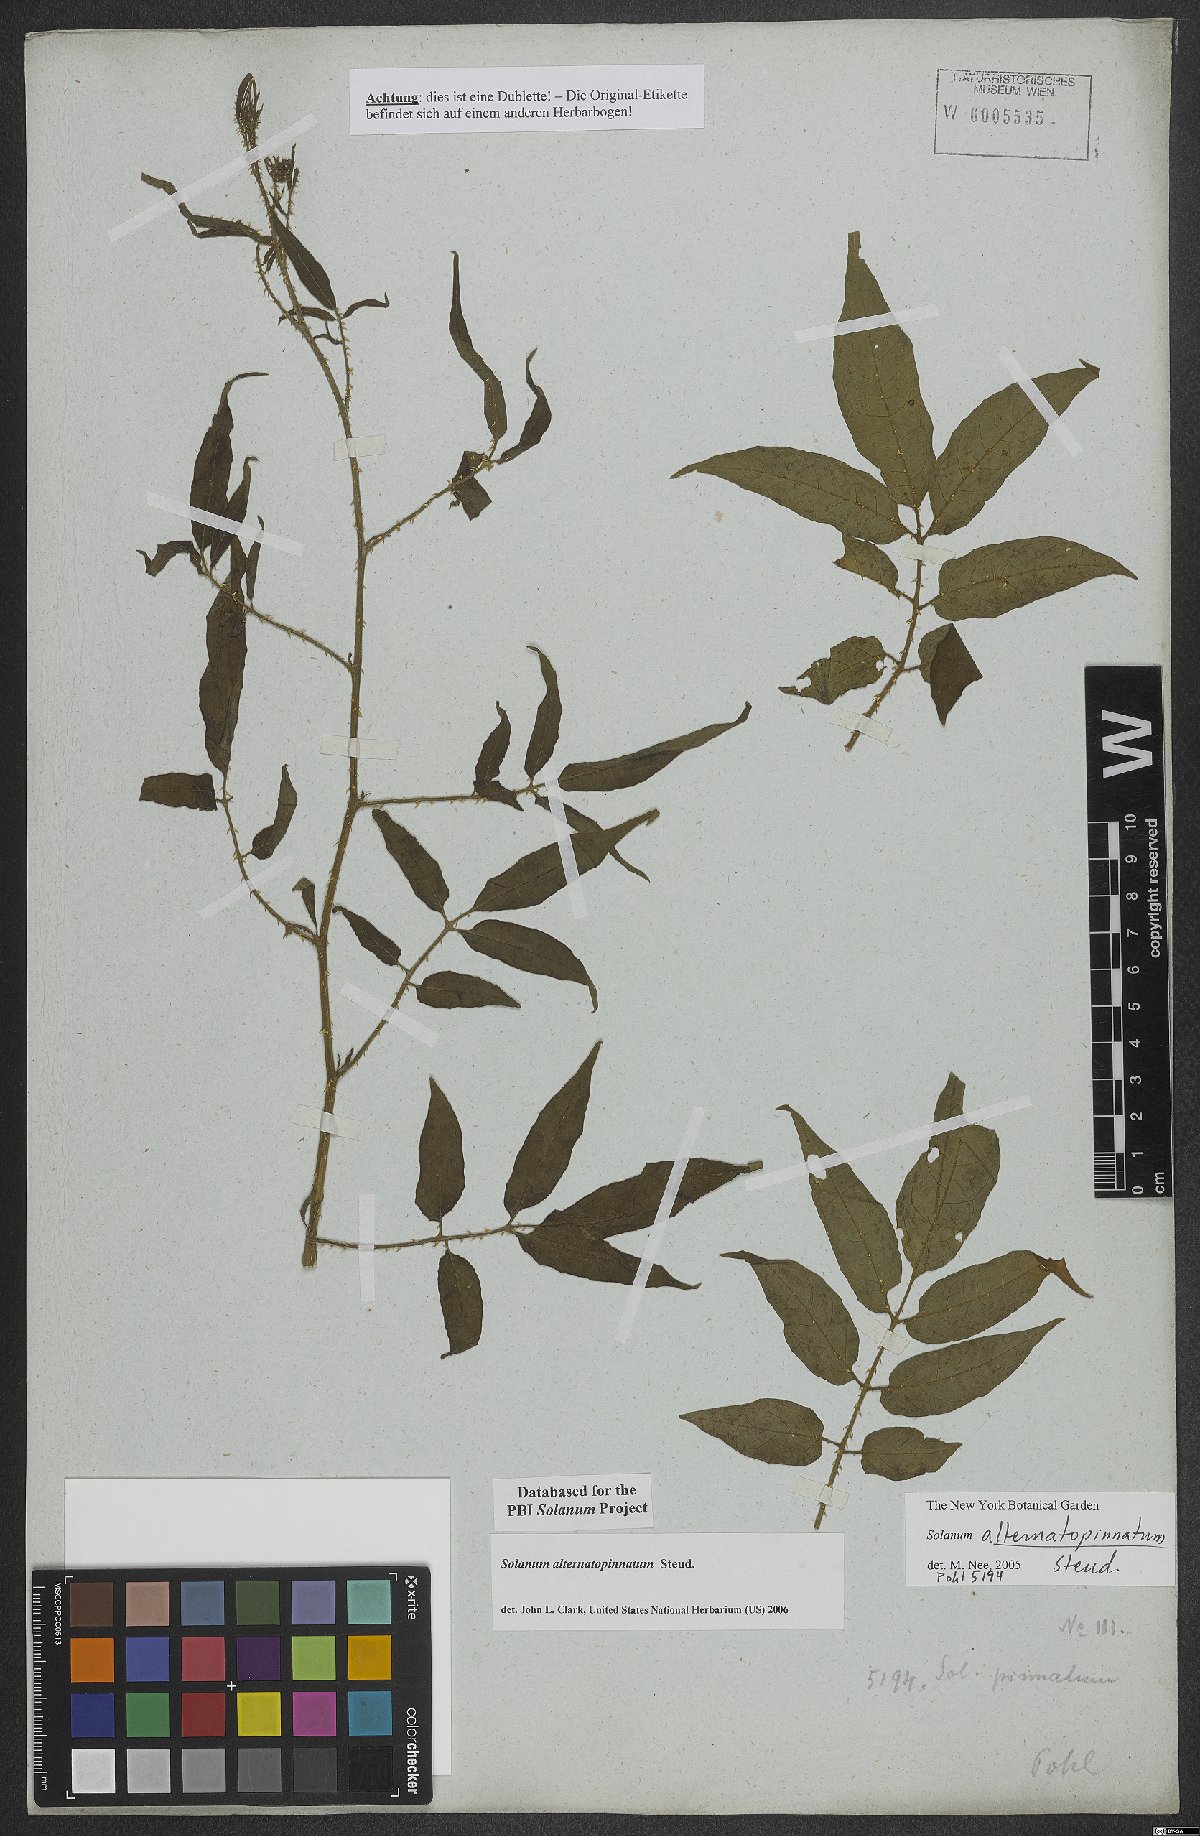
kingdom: Plantae
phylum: Tracheophyta
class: Magnoliopsida
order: Solanales
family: Solanaceae
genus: Solanum
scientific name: Solanum alternatopinnatum
